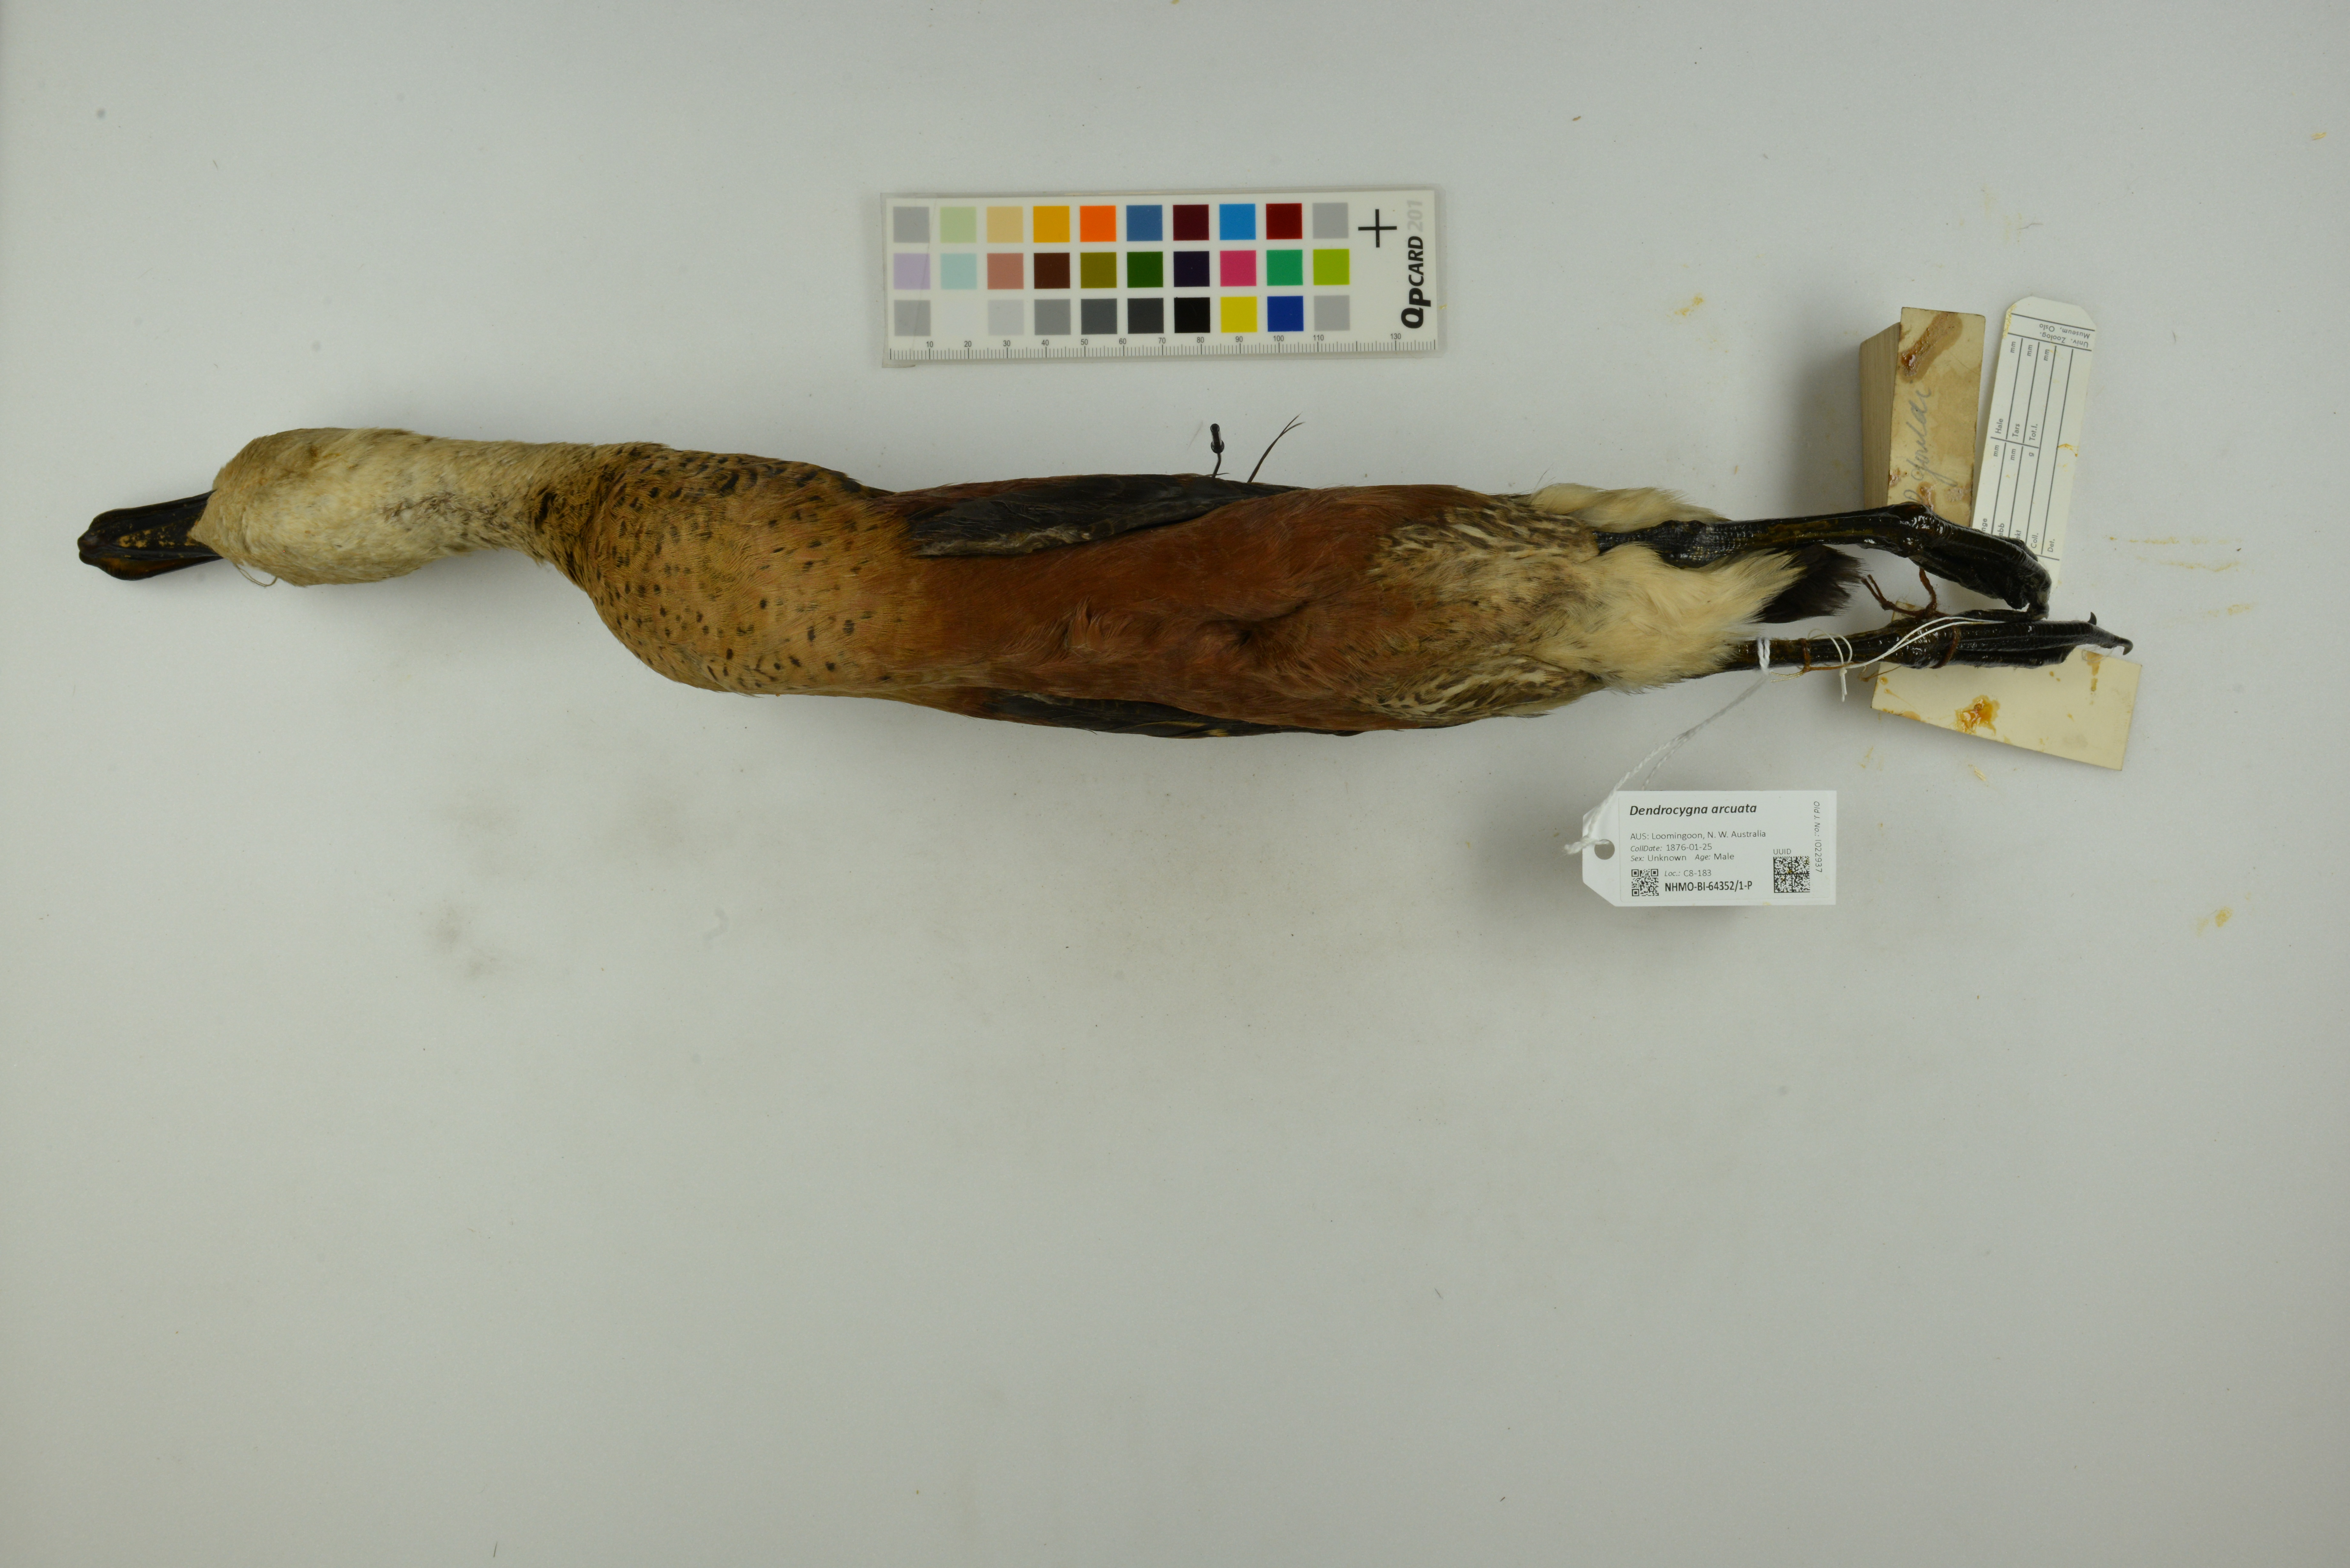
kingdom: Animalia
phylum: Chordata
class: Aves
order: Anseriformes
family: Anatidae
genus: Dendrocygna
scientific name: Dendrocygna arcuata
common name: Wandering whistling-duck
